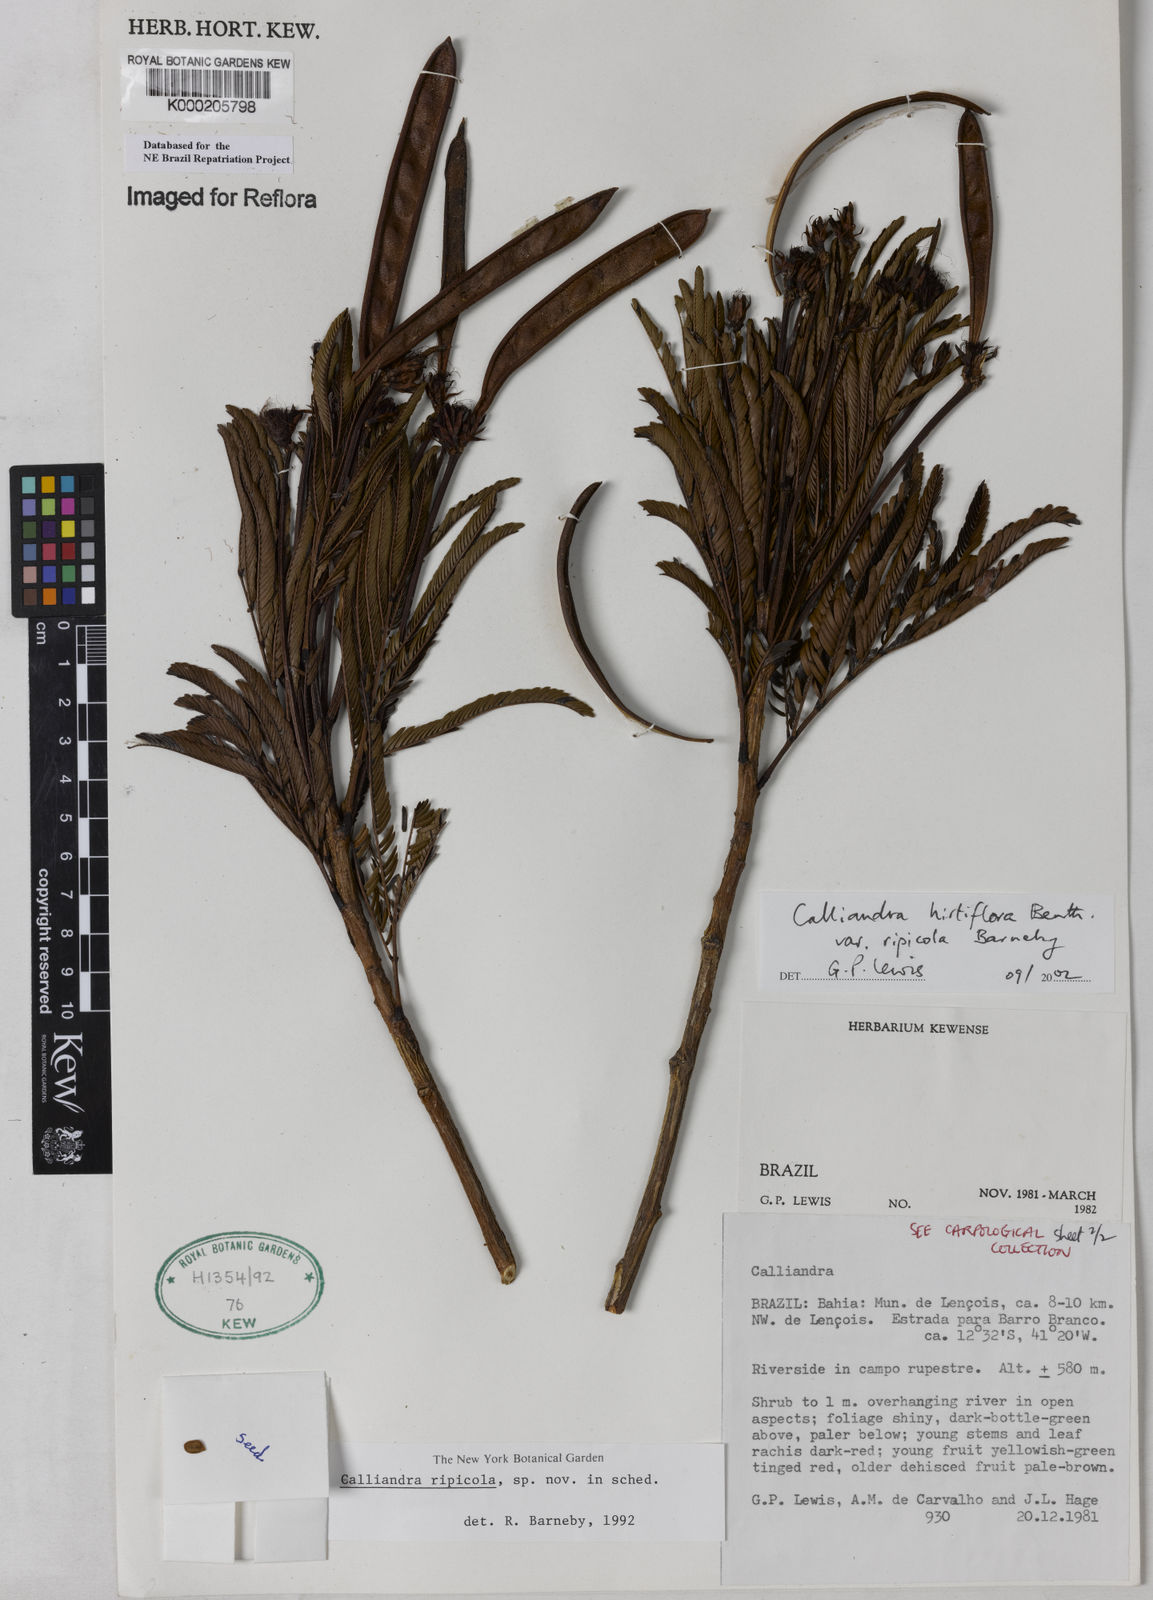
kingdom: Plantae
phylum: Tracheophyta
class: Magnoliopsida
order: Fabales
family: Fabaceae
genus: Calliandra
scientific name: Calliandra hirtiflora
